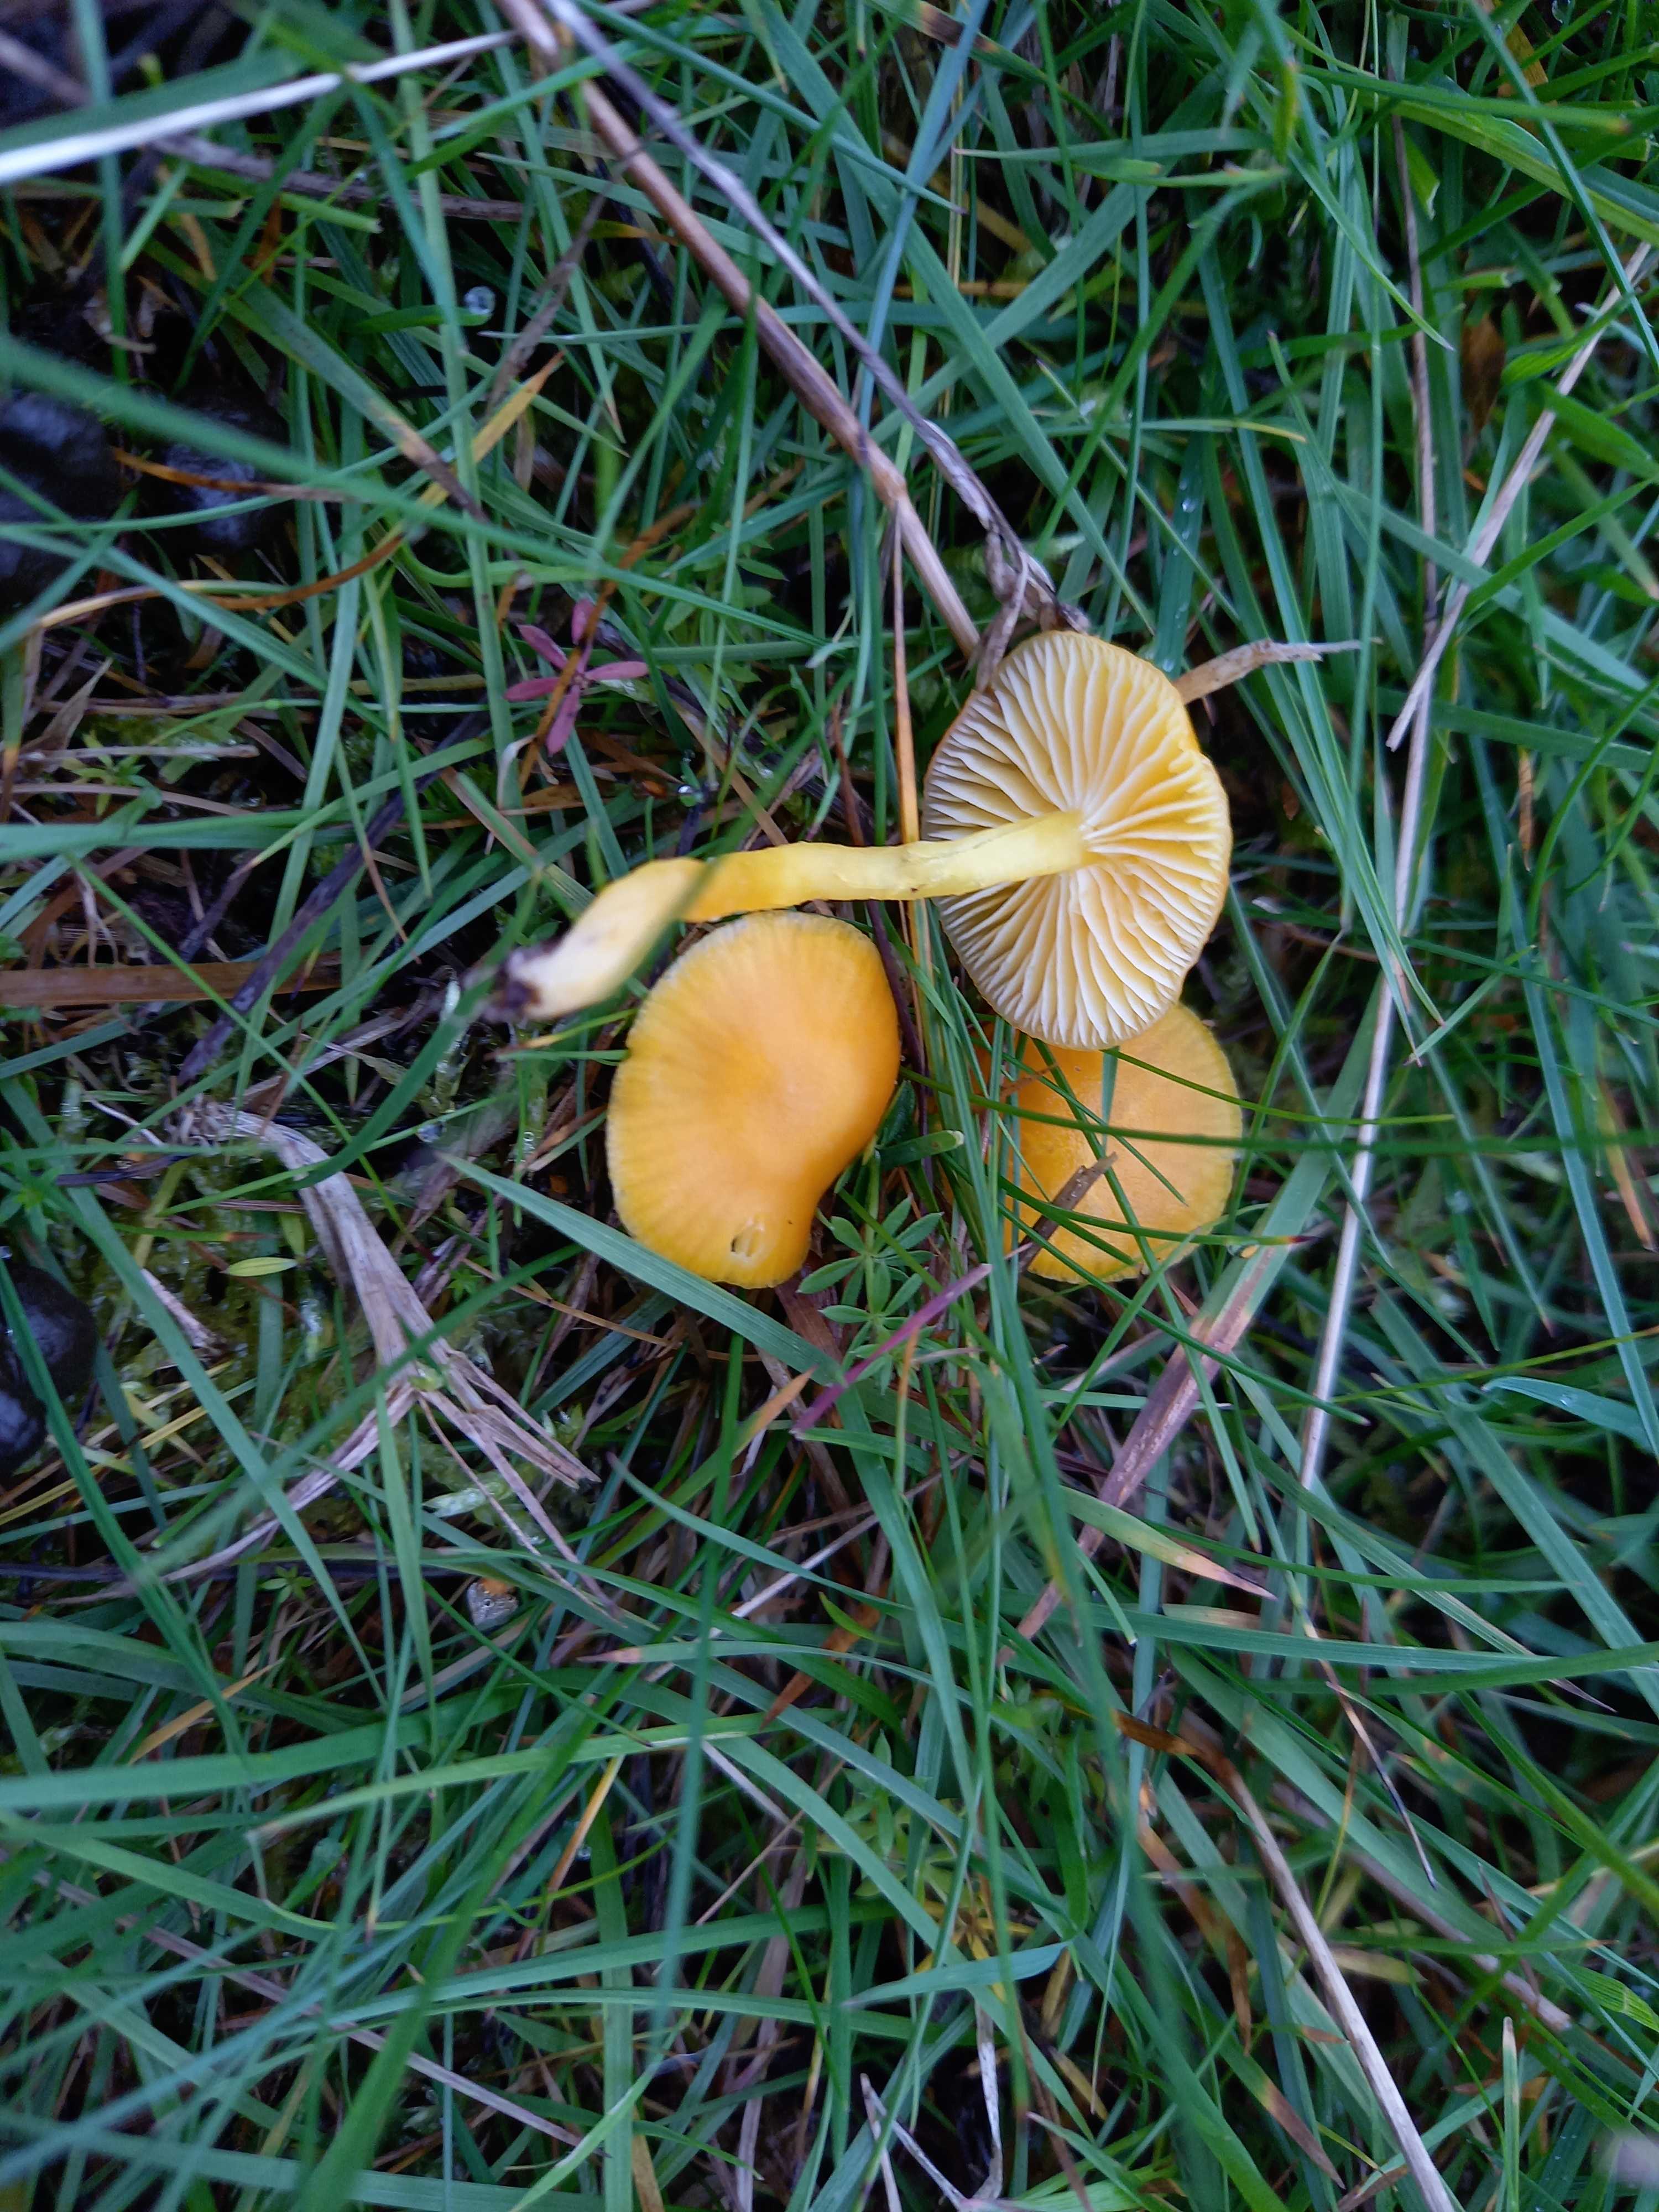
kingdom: Fungi
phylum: Basidiomycota
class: Agaricomycetes
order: Agaricales
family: Hygrophoraceae
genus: Hygrocybe
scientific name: Hygrocybe ceracea
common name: voksgul vokshat
